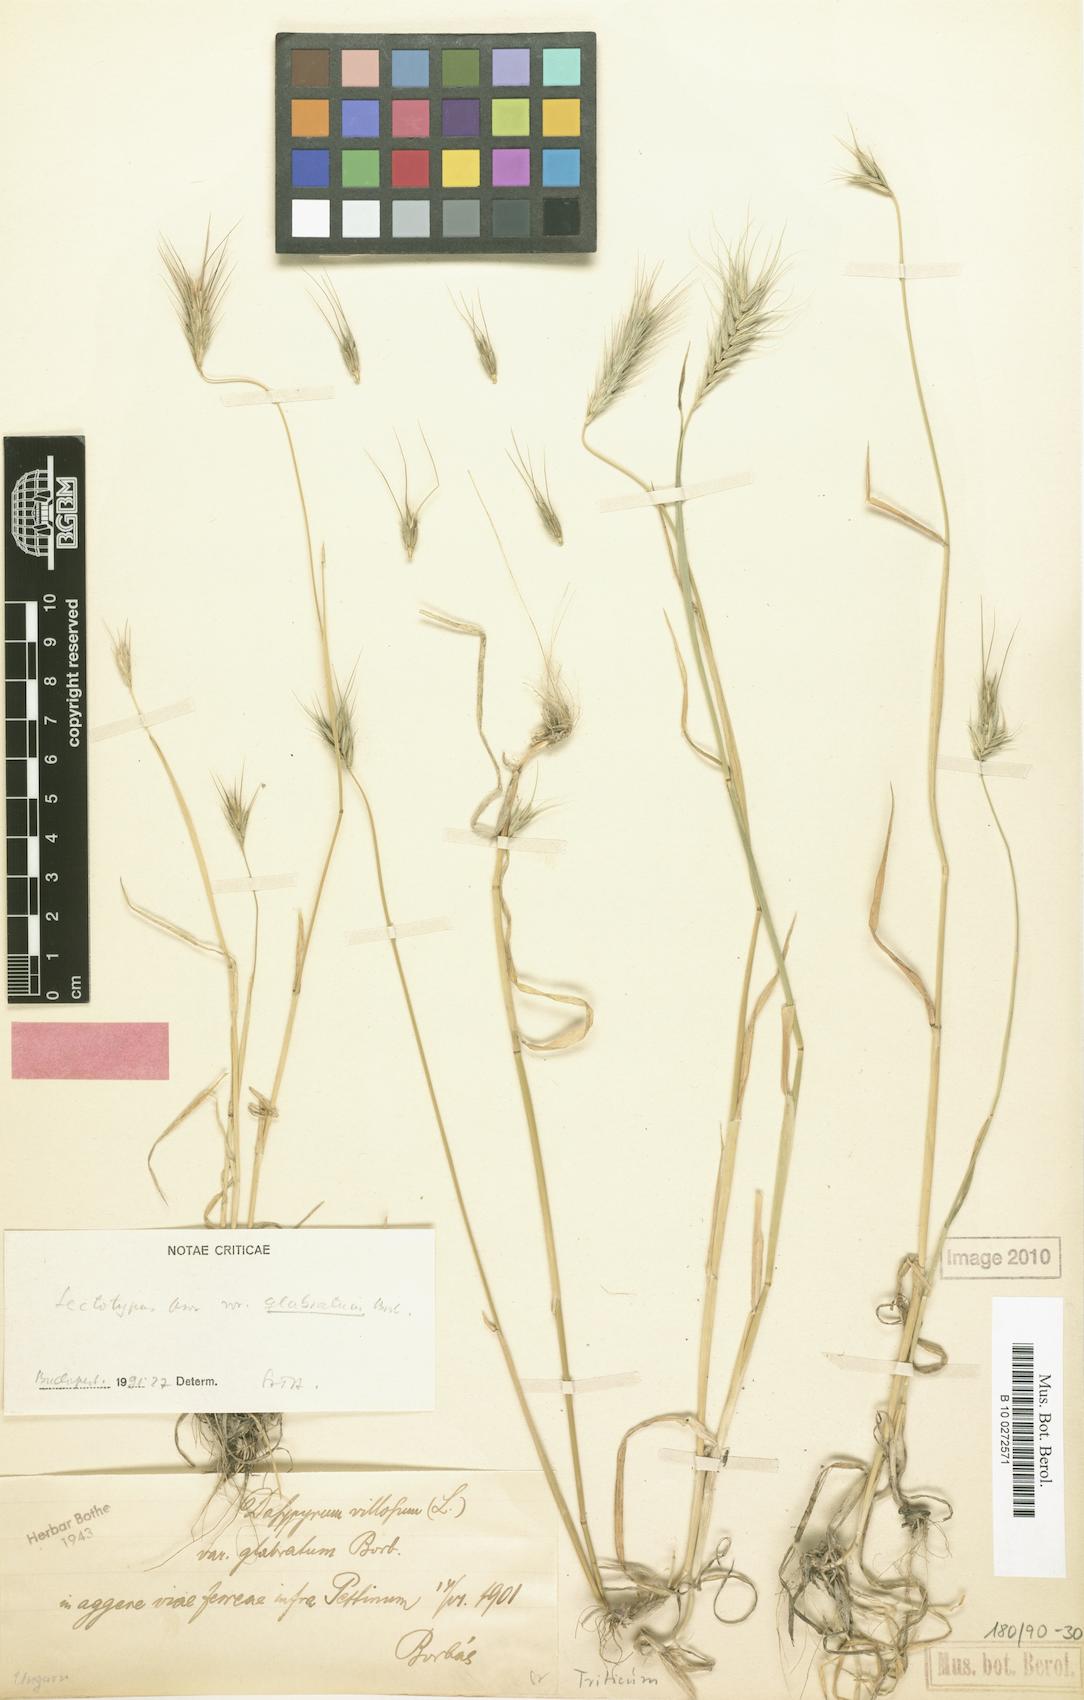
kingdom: Plantae
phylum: Tracheophyta
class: Liliopsida
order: Poales
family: Poaceae
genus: Dasypyrum
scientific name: Dasypyrum villosum
